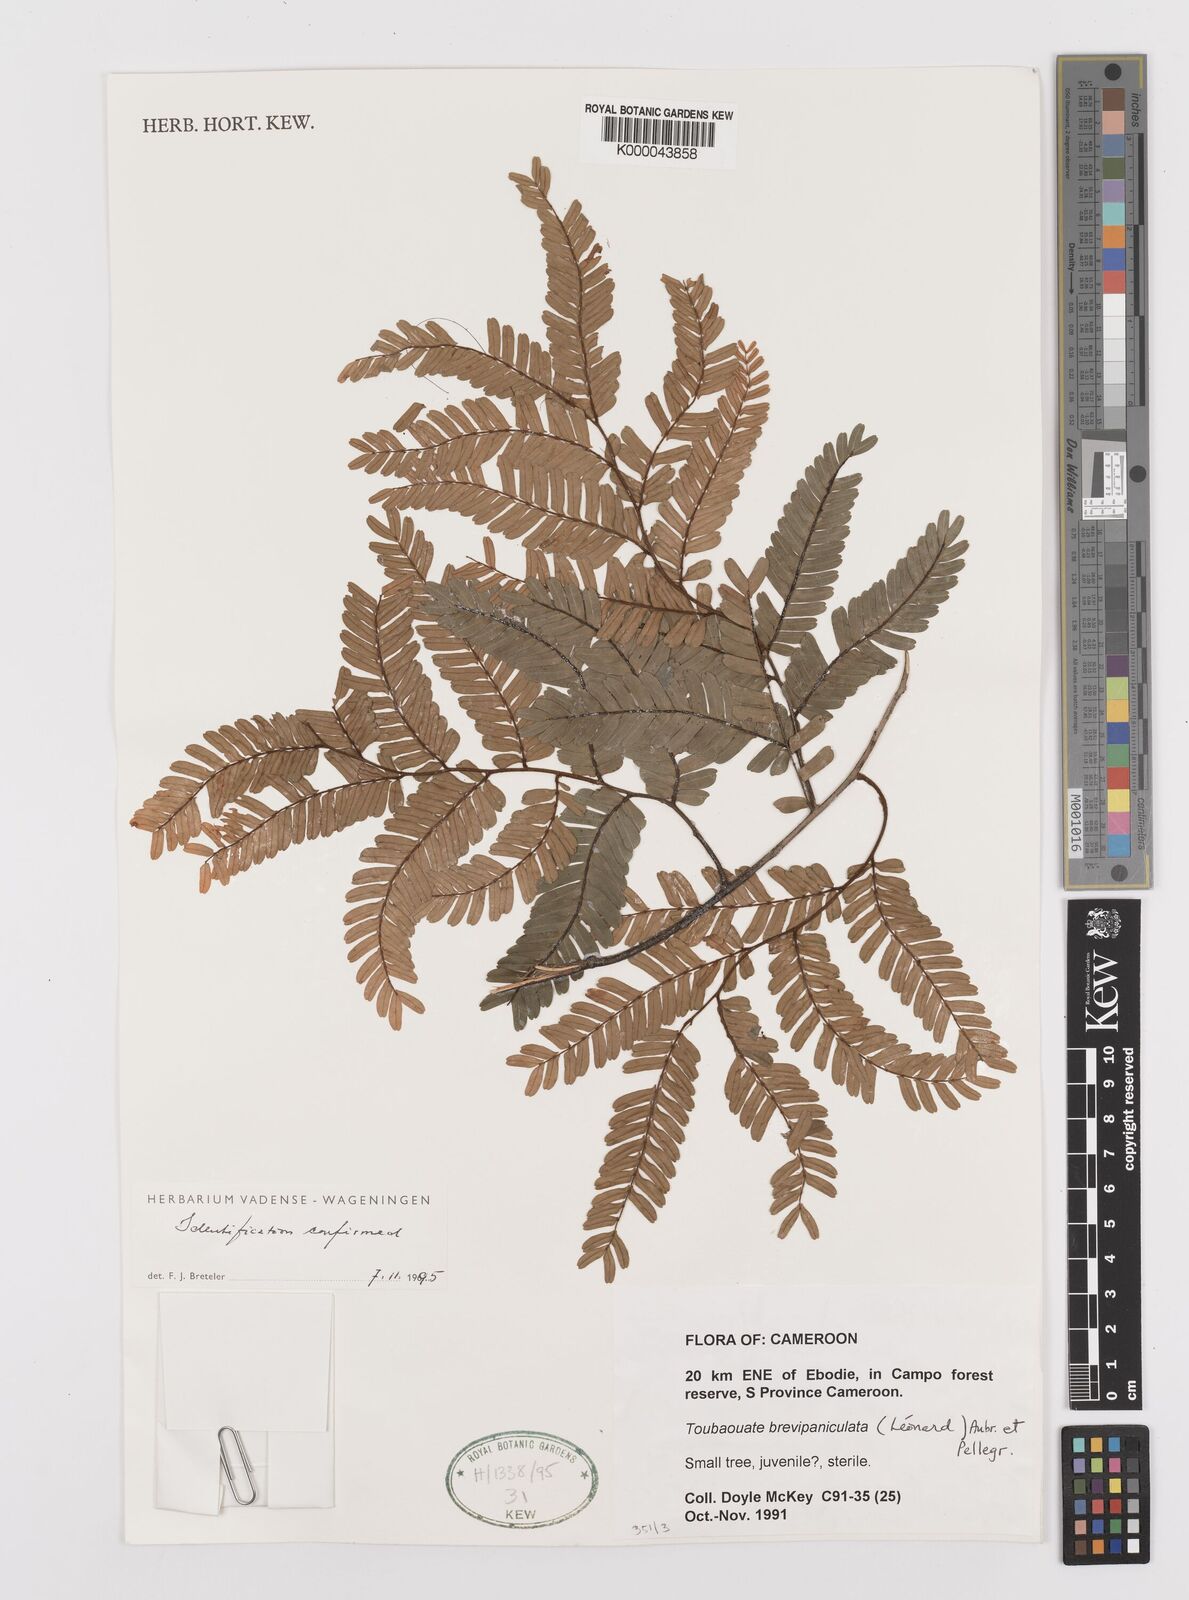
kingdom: Plantae
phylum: Tracheophyta
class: Magnoliopsida
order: Fabales
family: Fabaceae
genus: Didelotia
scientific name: Didelotia
